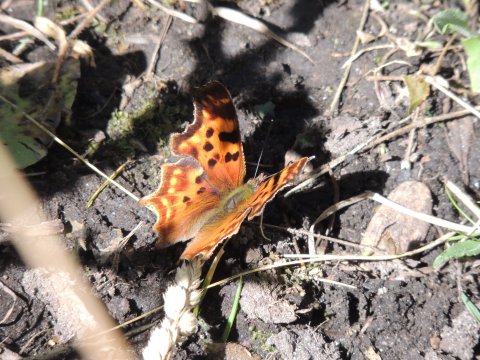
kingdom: Animalia
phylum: Arthropoda
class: Insecta
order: Lepidoptera
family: Nymphalidae
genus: Polygonia
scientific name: Polygonia satyrus
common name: Satyr Comma
